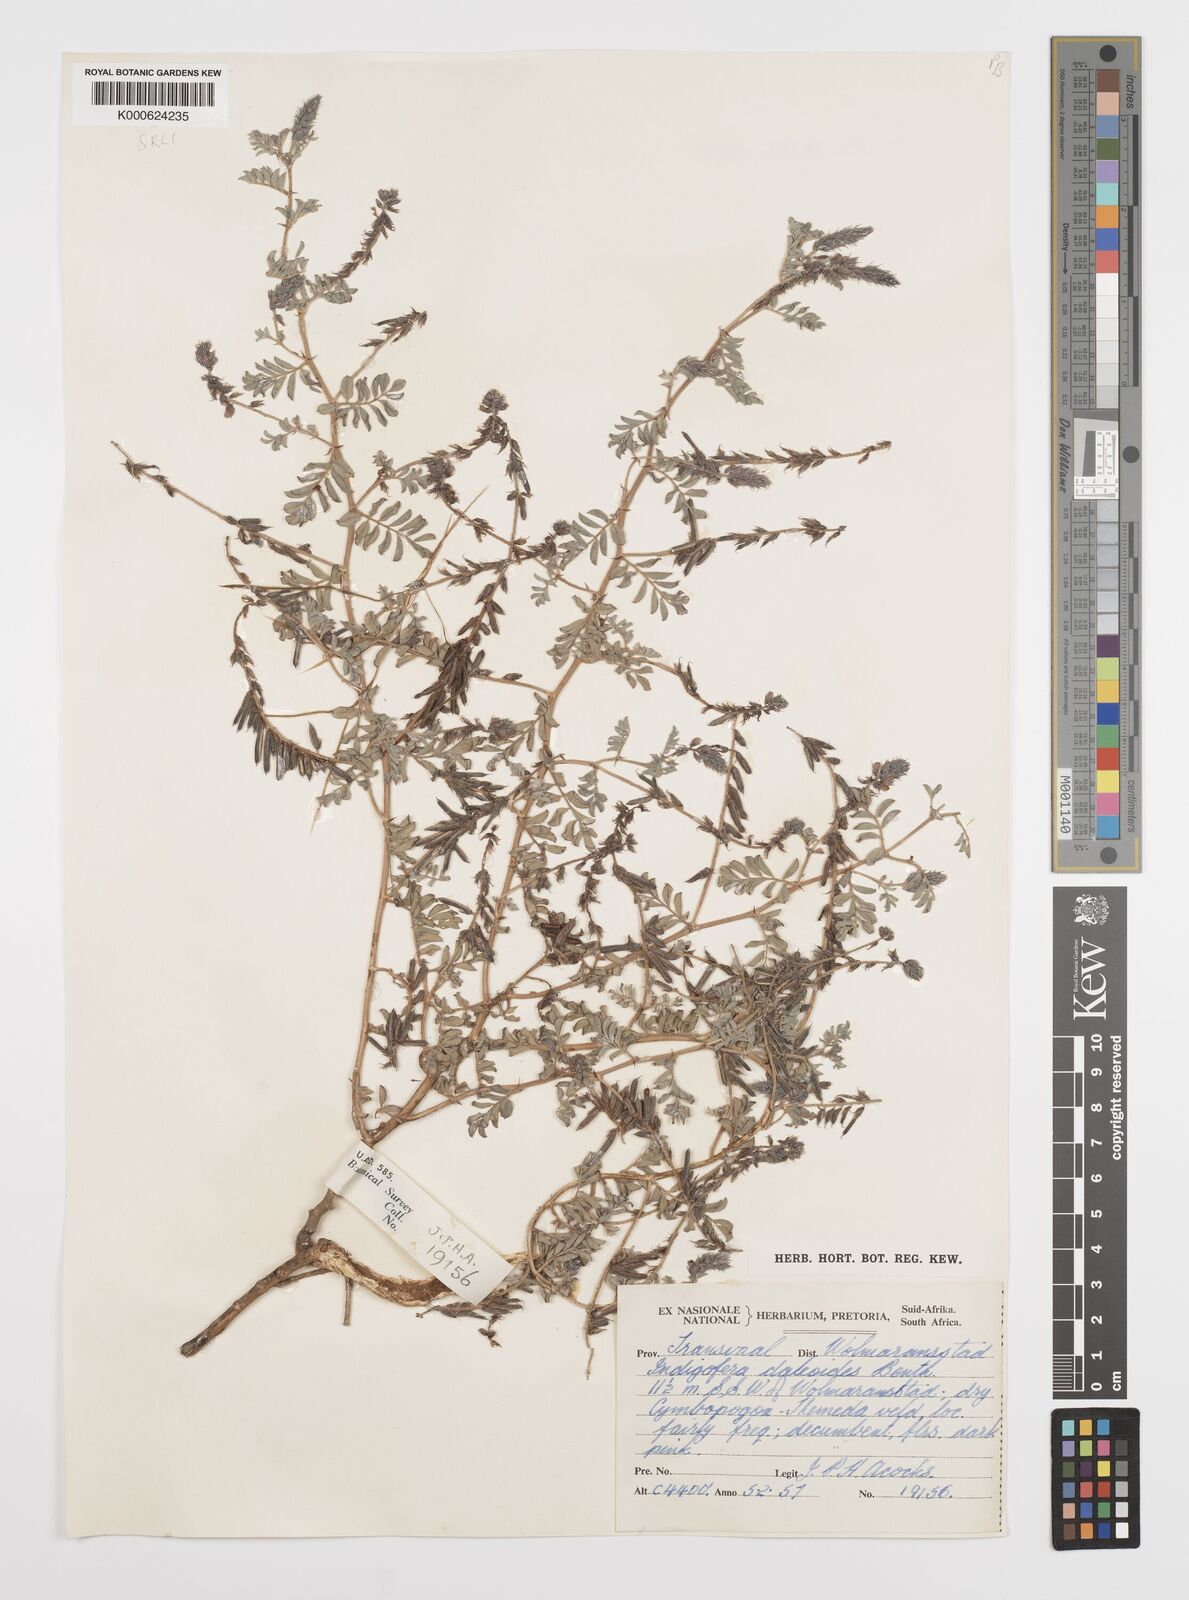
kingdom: Plantae
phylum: Tracheophyta
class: Magnoliopsida
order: Fabales
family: Fabaceae
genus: Indigofera
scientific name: Indigofera daleoides
